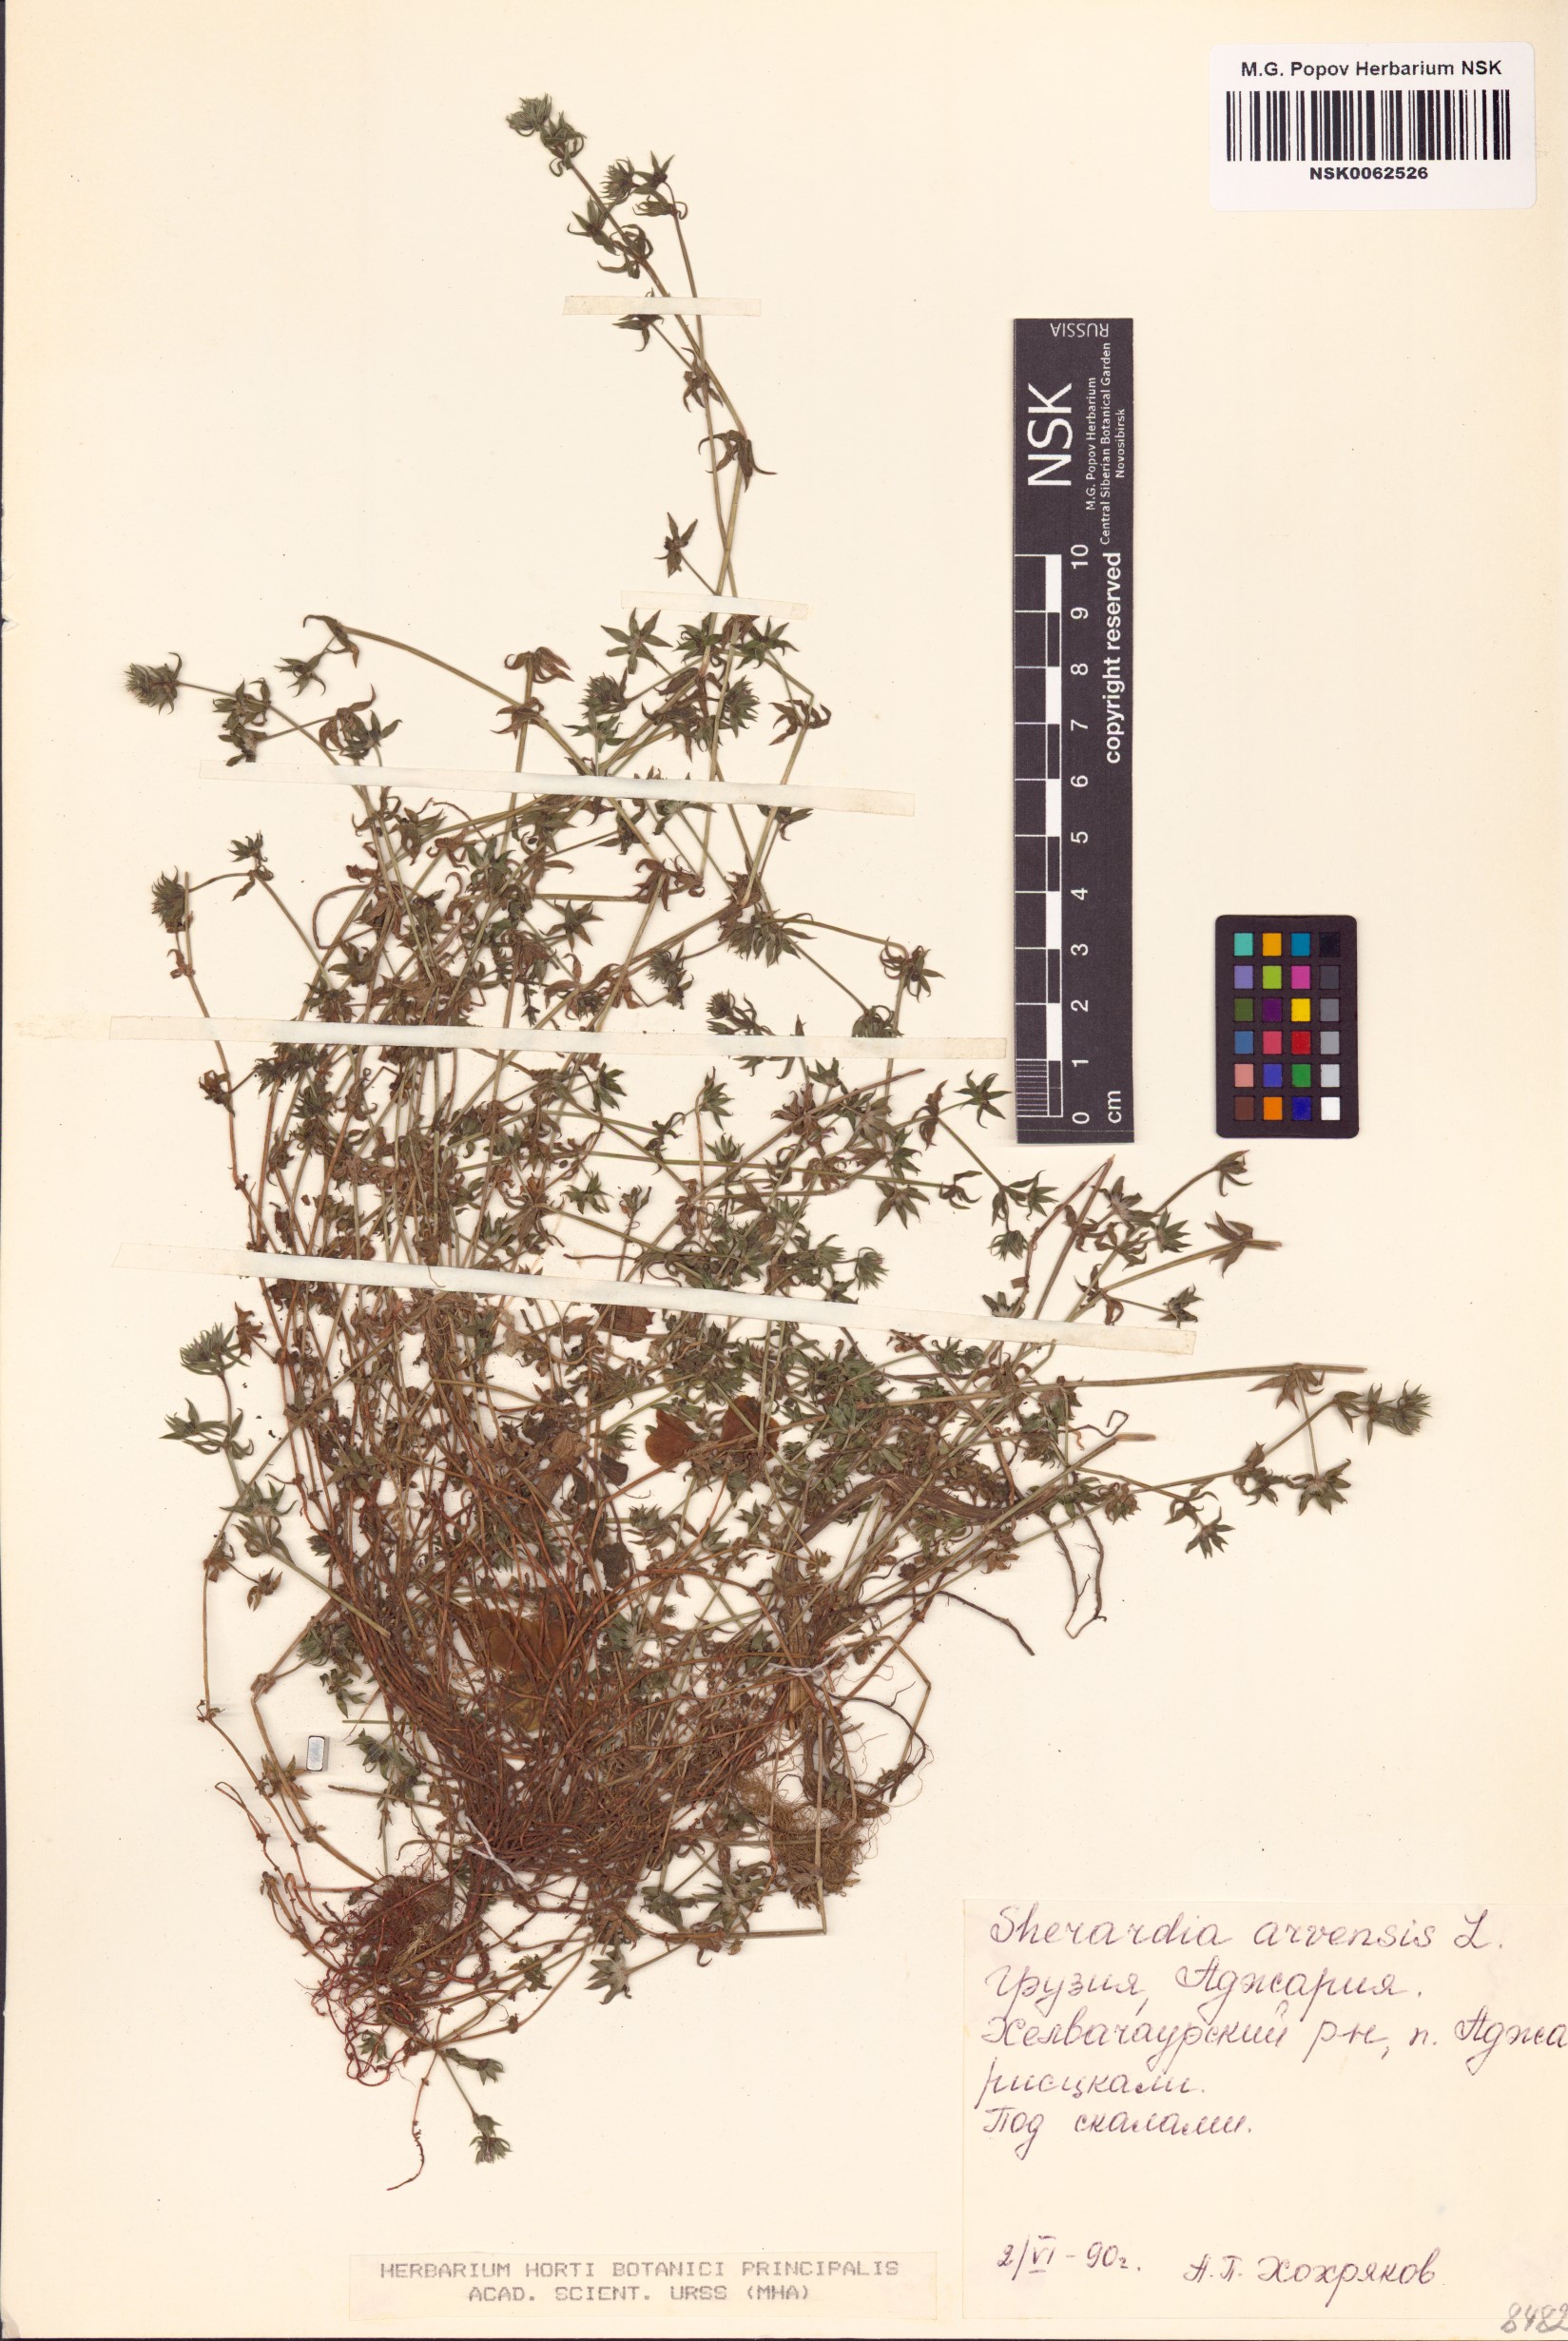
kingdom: Plantae
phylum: Tracheophyta
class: Magnoliopsida
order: Gentianales
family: Rubiaceae
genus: Sherardia
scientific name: Sherardia arvensis
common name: Field madder
